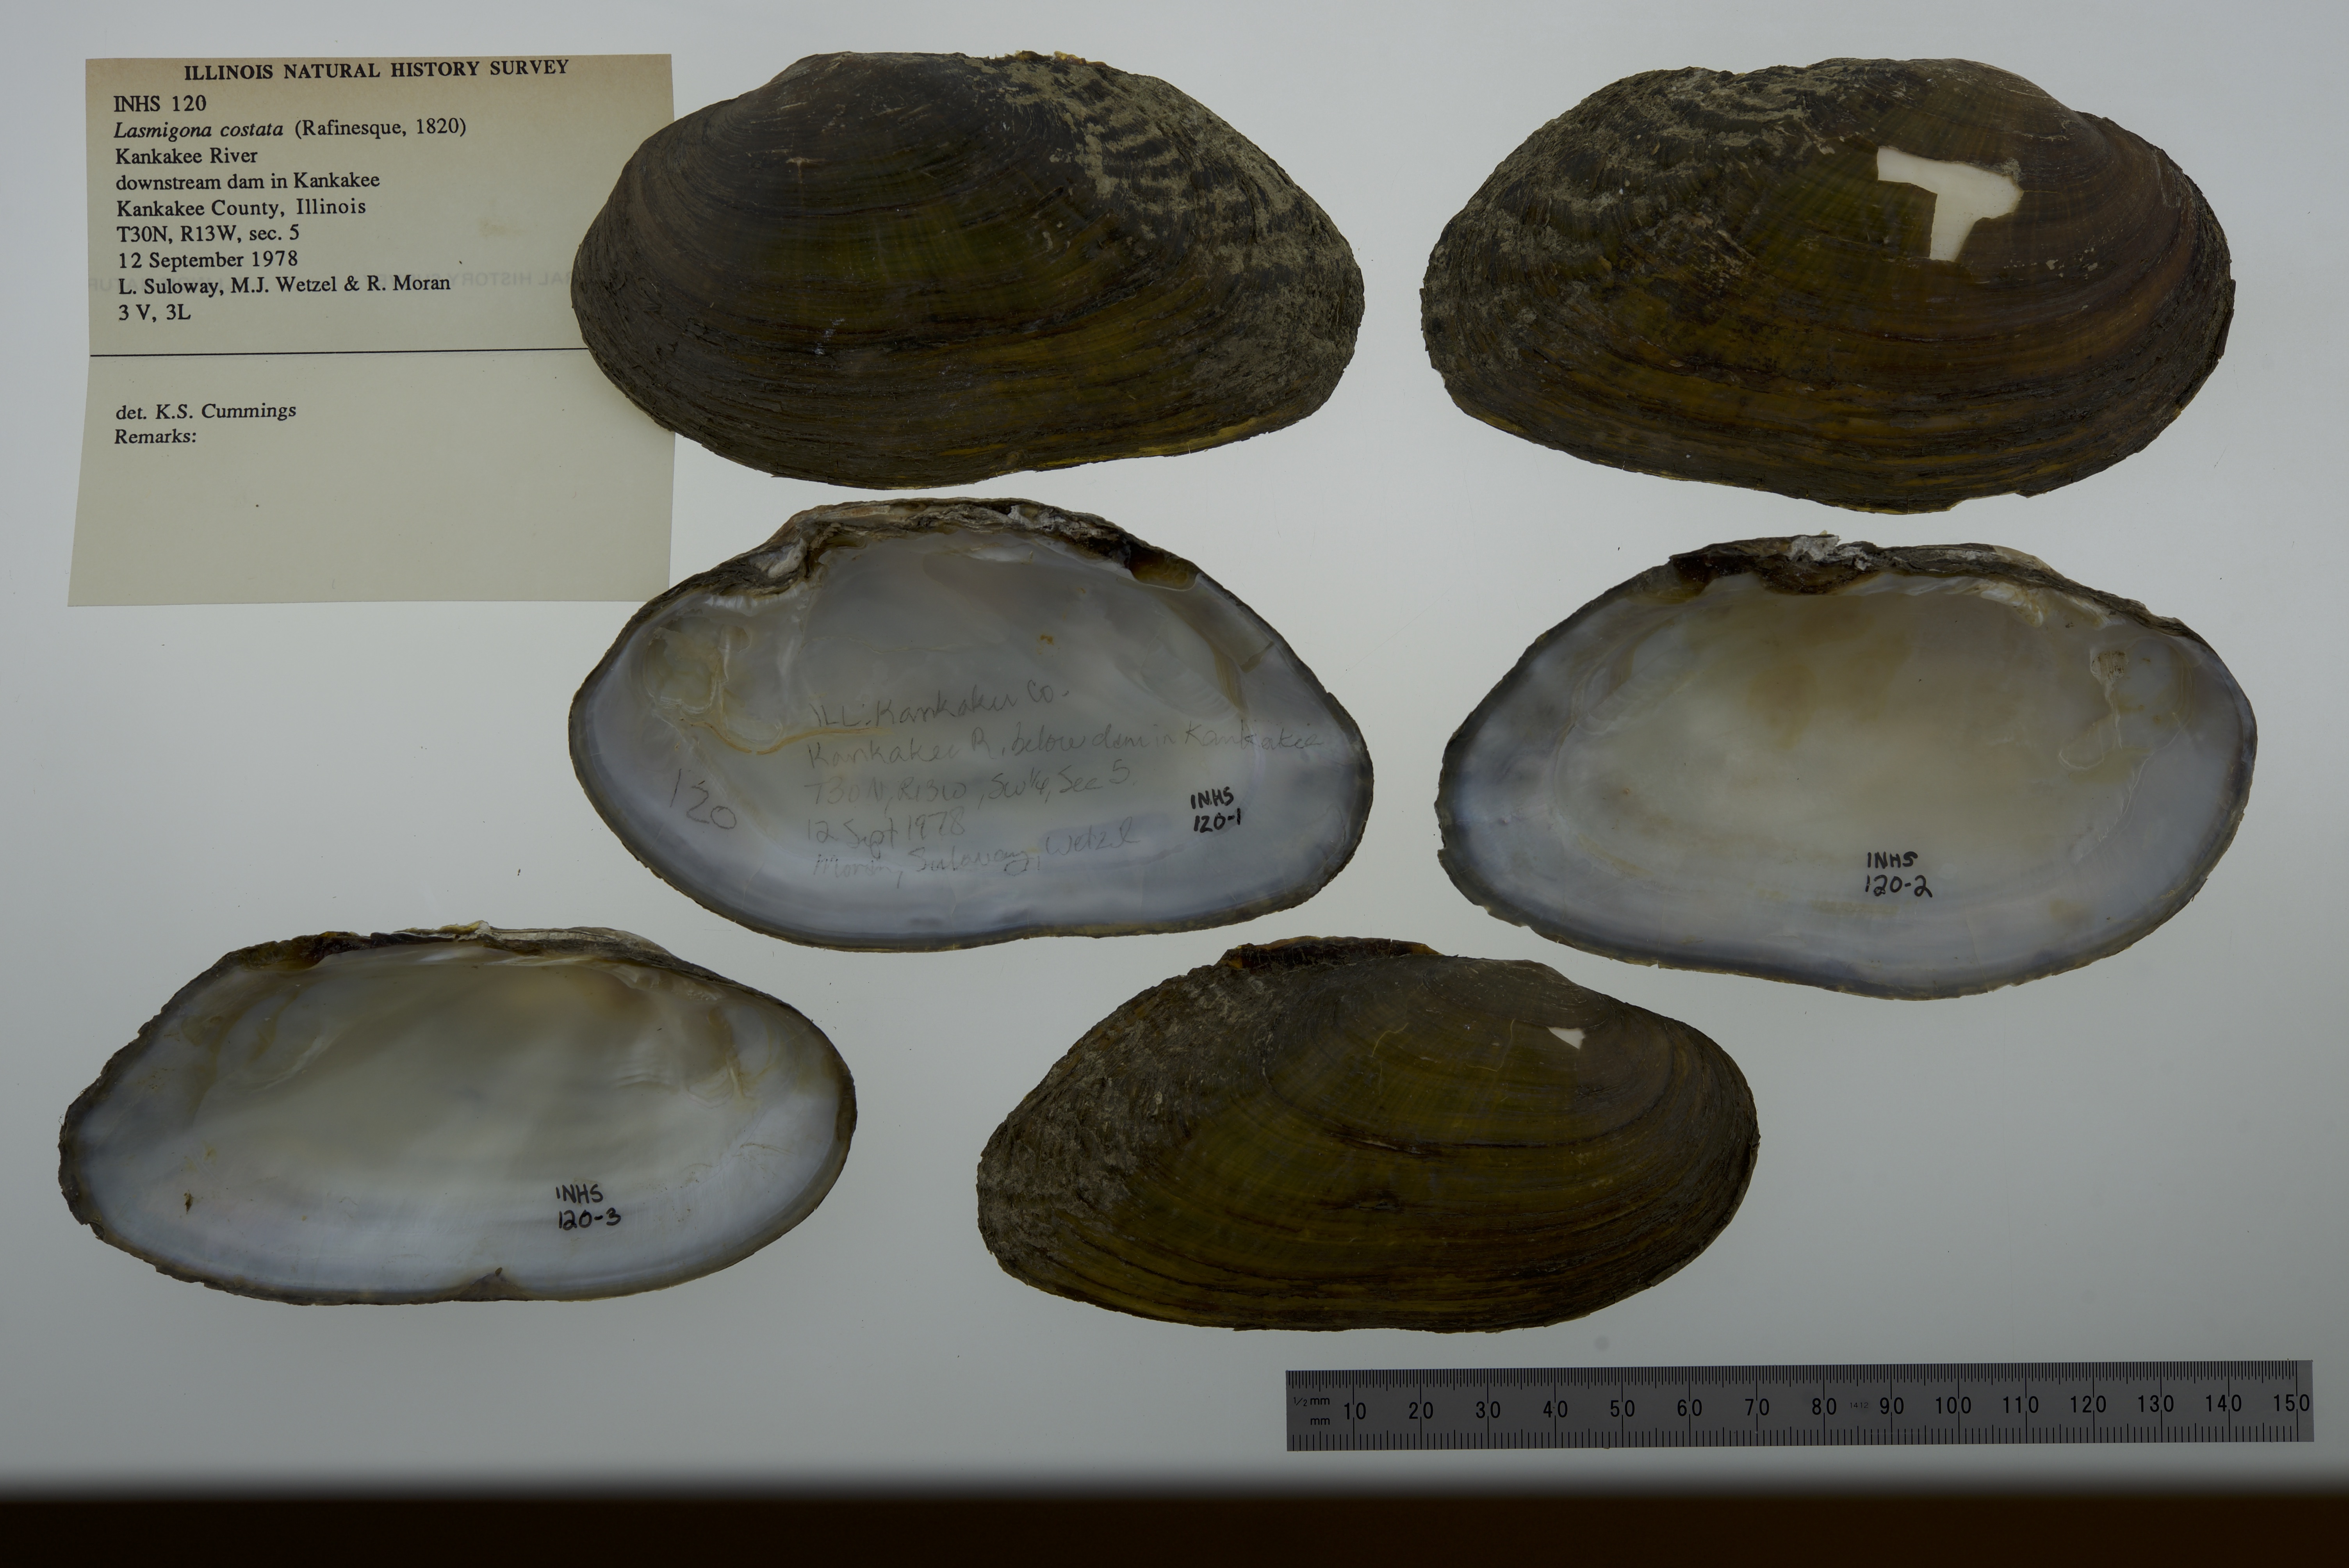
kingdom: Animalia
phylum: Mollusca
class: Bivalvia
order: Unionida
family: Unionidae
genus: Lasmigona
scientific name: Lasmigona costata
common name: Flutedshell
